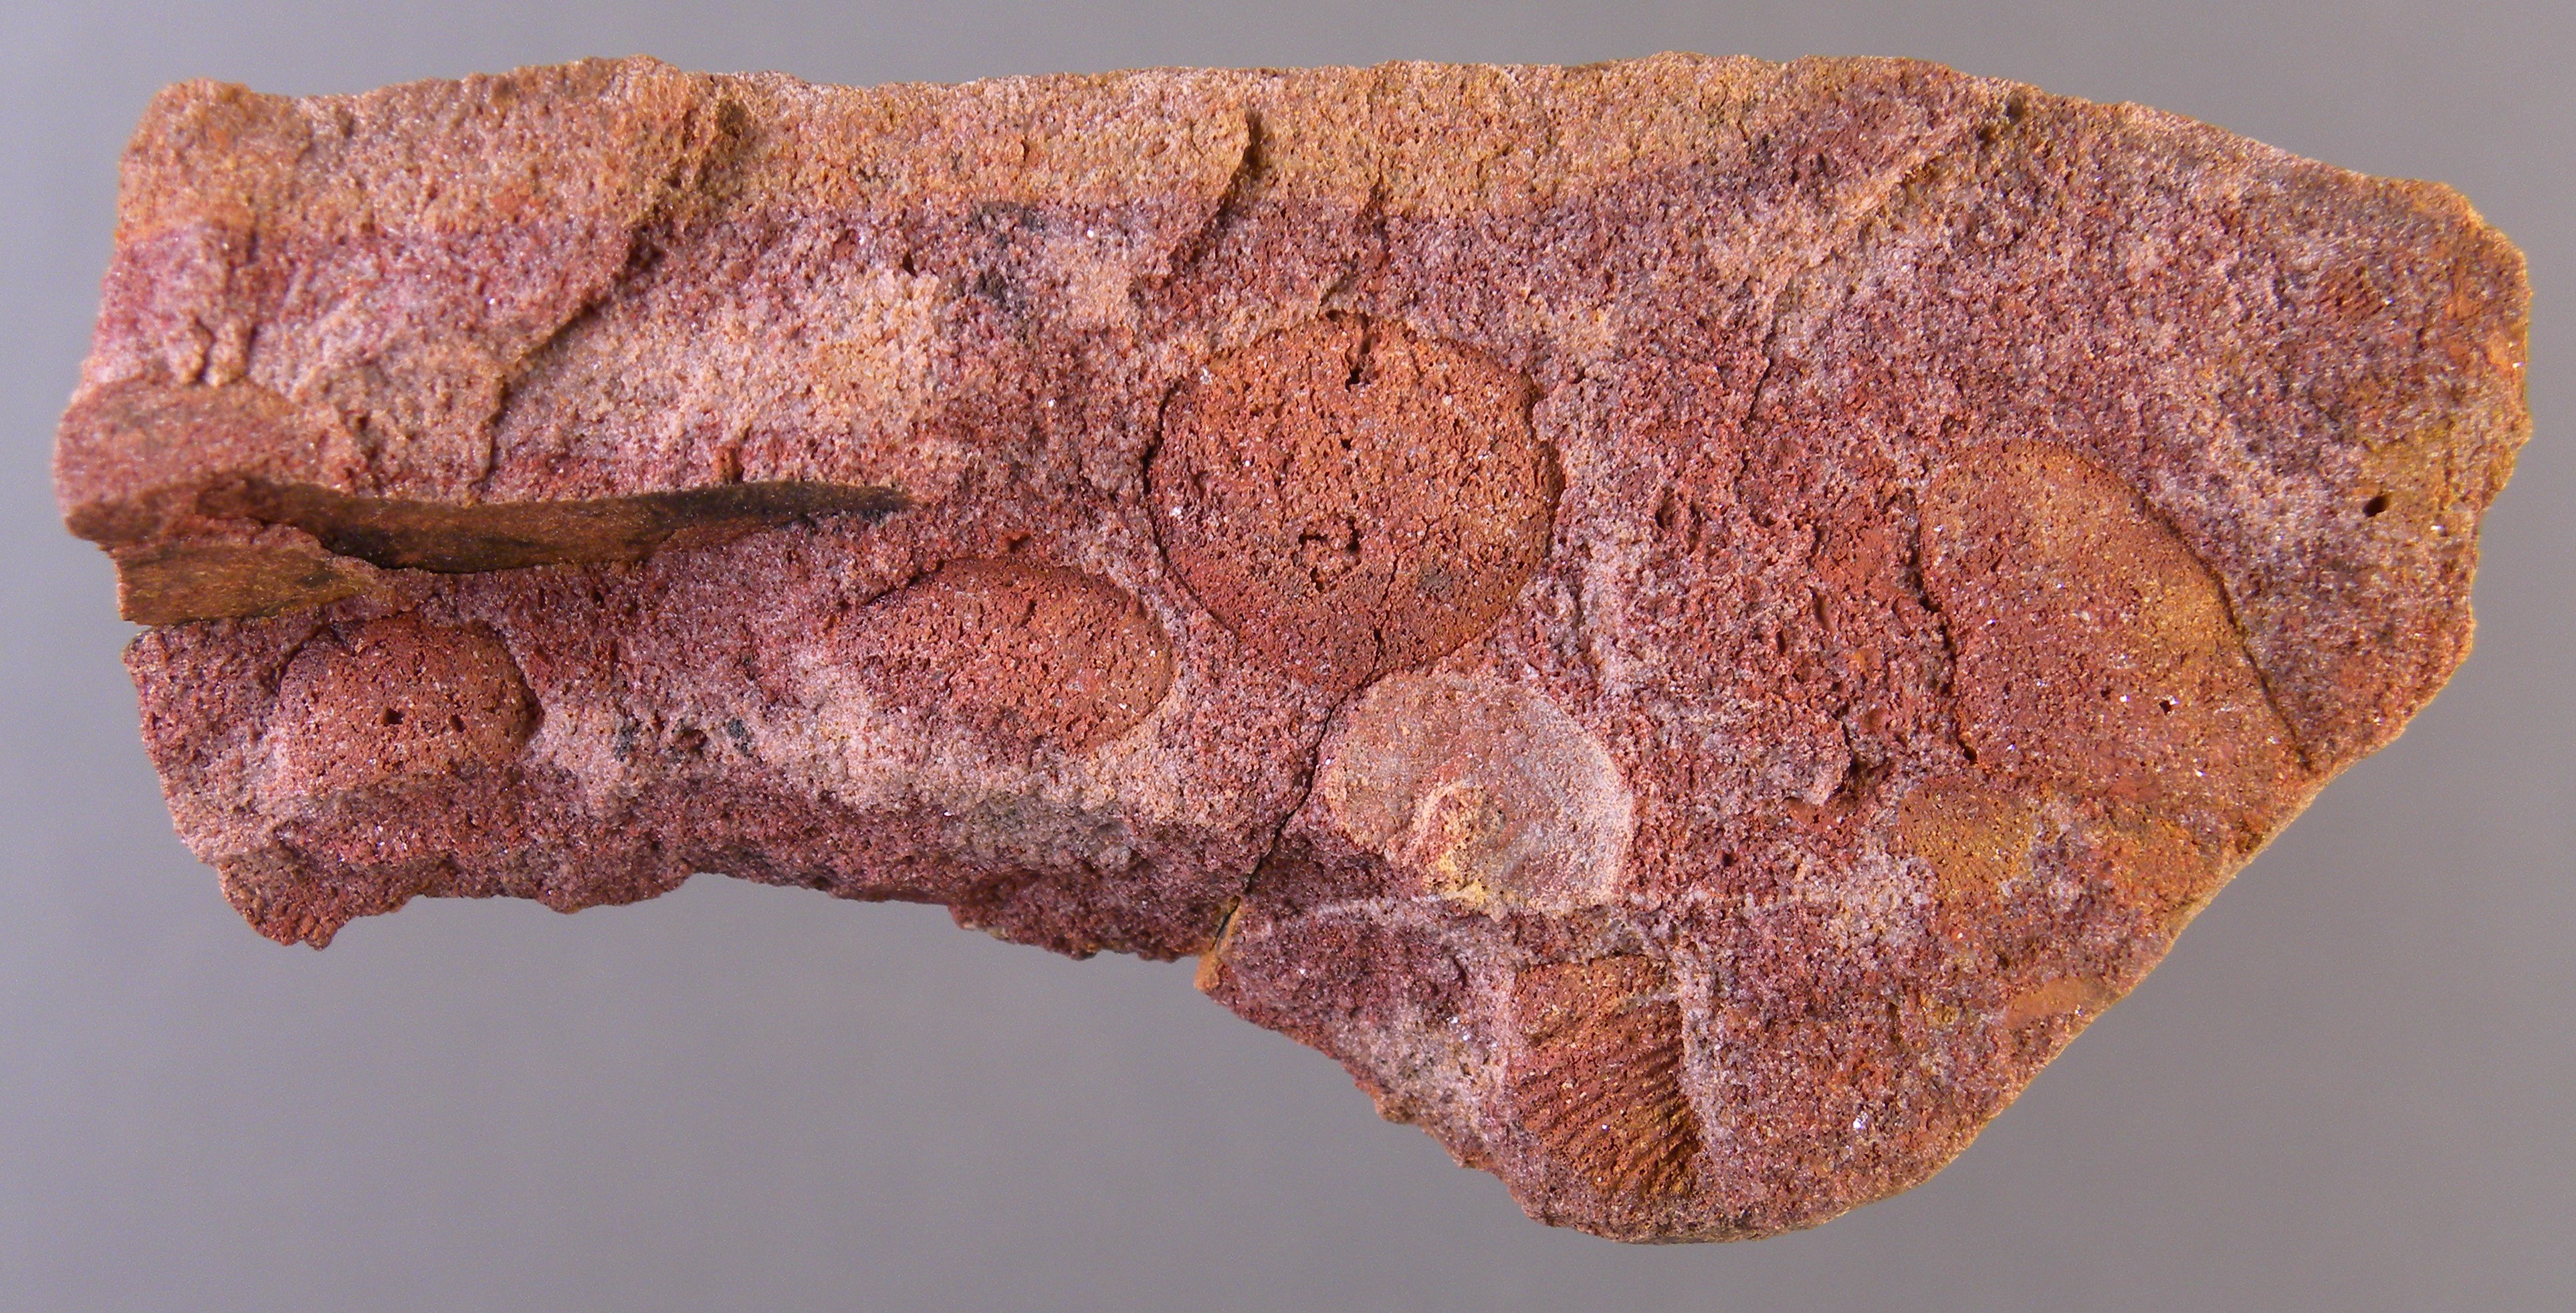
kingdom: Animalia
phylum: Mollusca
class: Bivalvia
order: Nuculanida
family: Malletiidae
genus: Palaeoneilo
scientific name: Palaeoneilo
